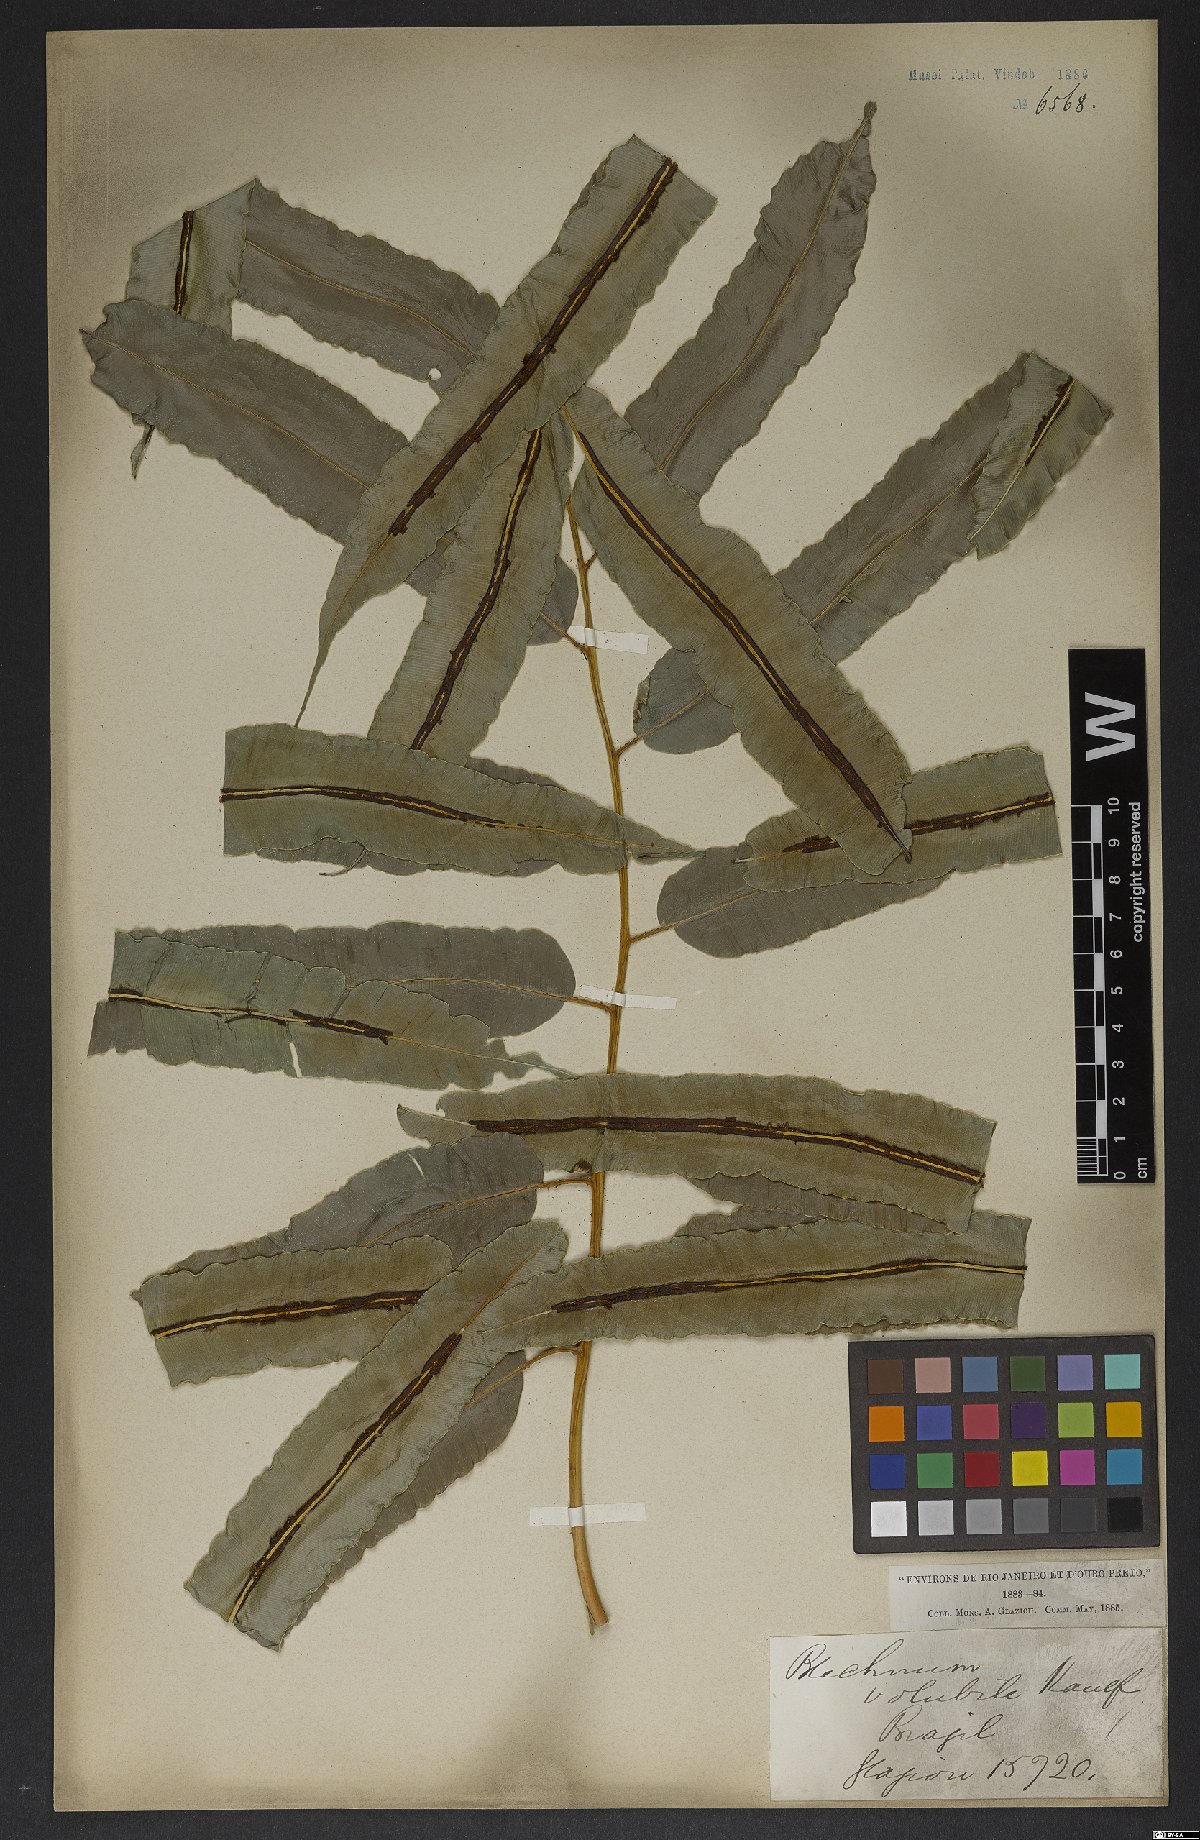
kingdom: Plantae
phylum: Tracheophyta
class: Polypodiopsida
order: Polypodiales
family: Blechnaceae
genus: Salpichlaena
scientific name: Salpichlaena volubilis
